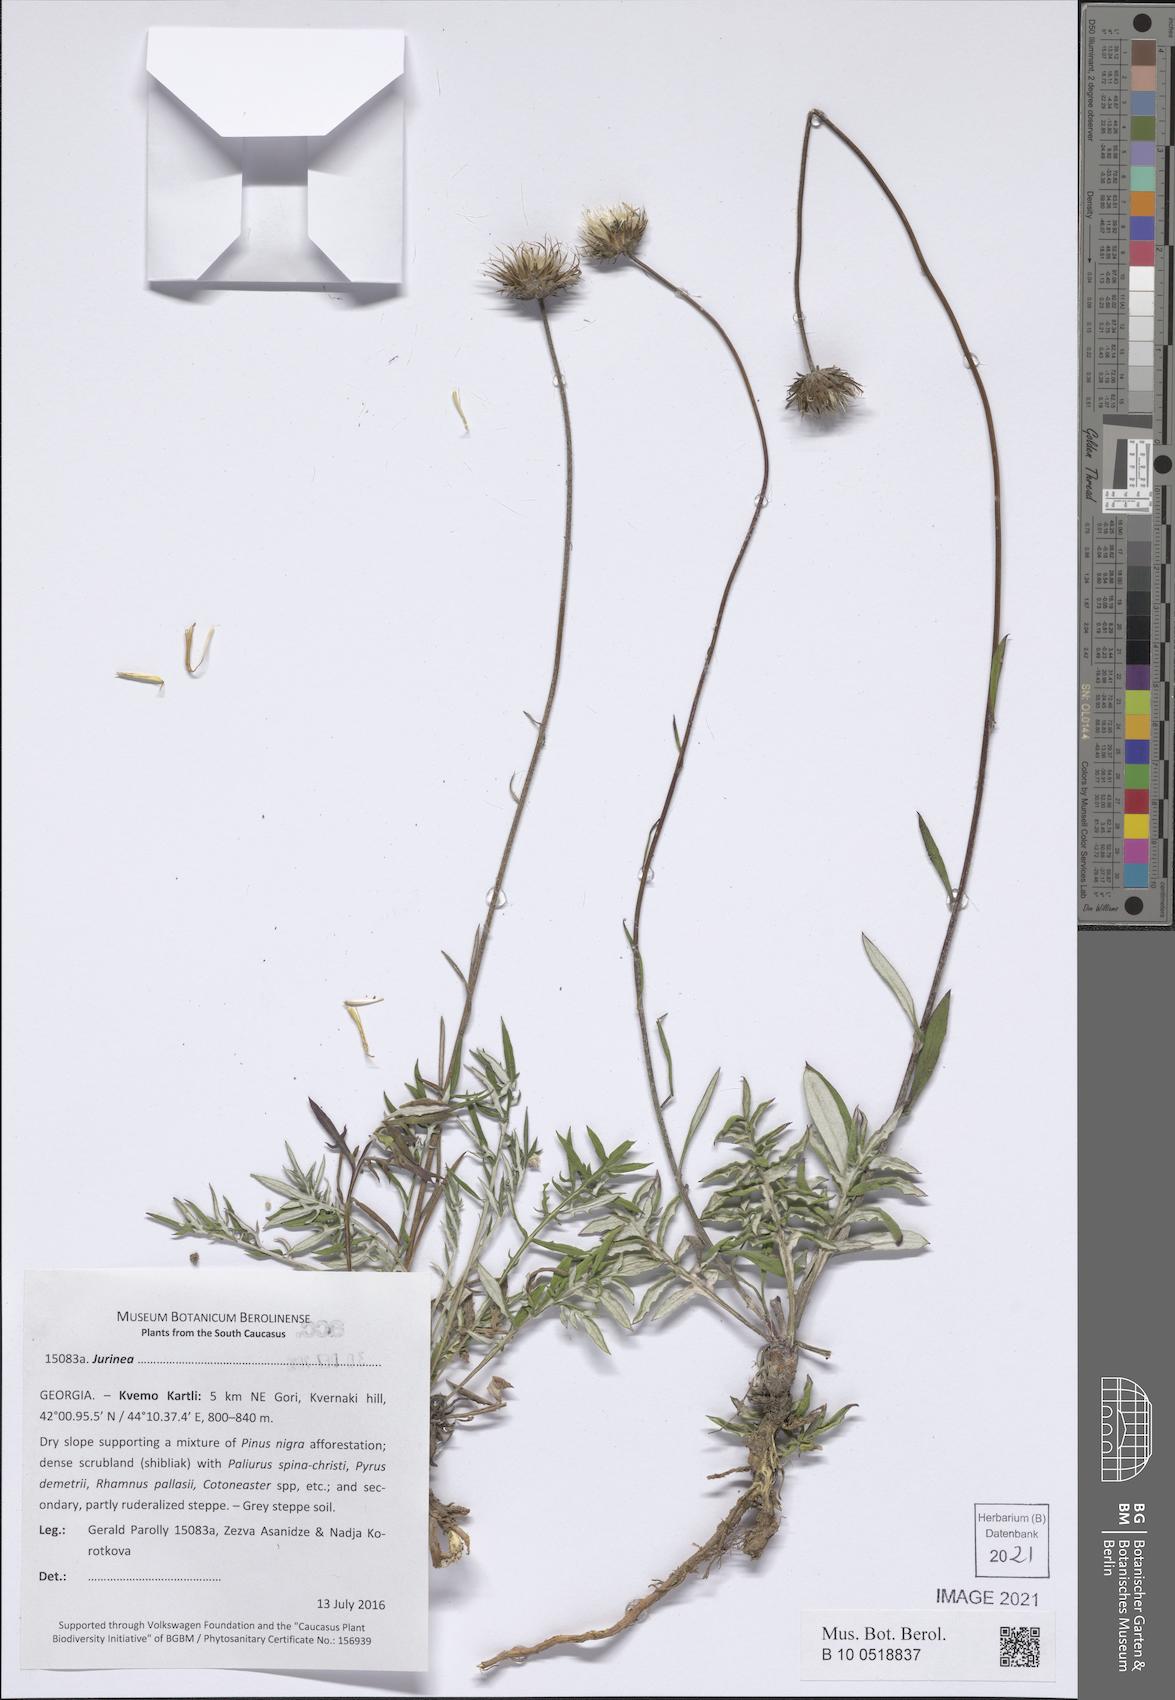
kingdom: Plantae
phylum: Tracheophyta
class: Magnoliopsida
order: Asterales
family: Asteraceae
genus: Jurinea
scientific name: Jurinea
